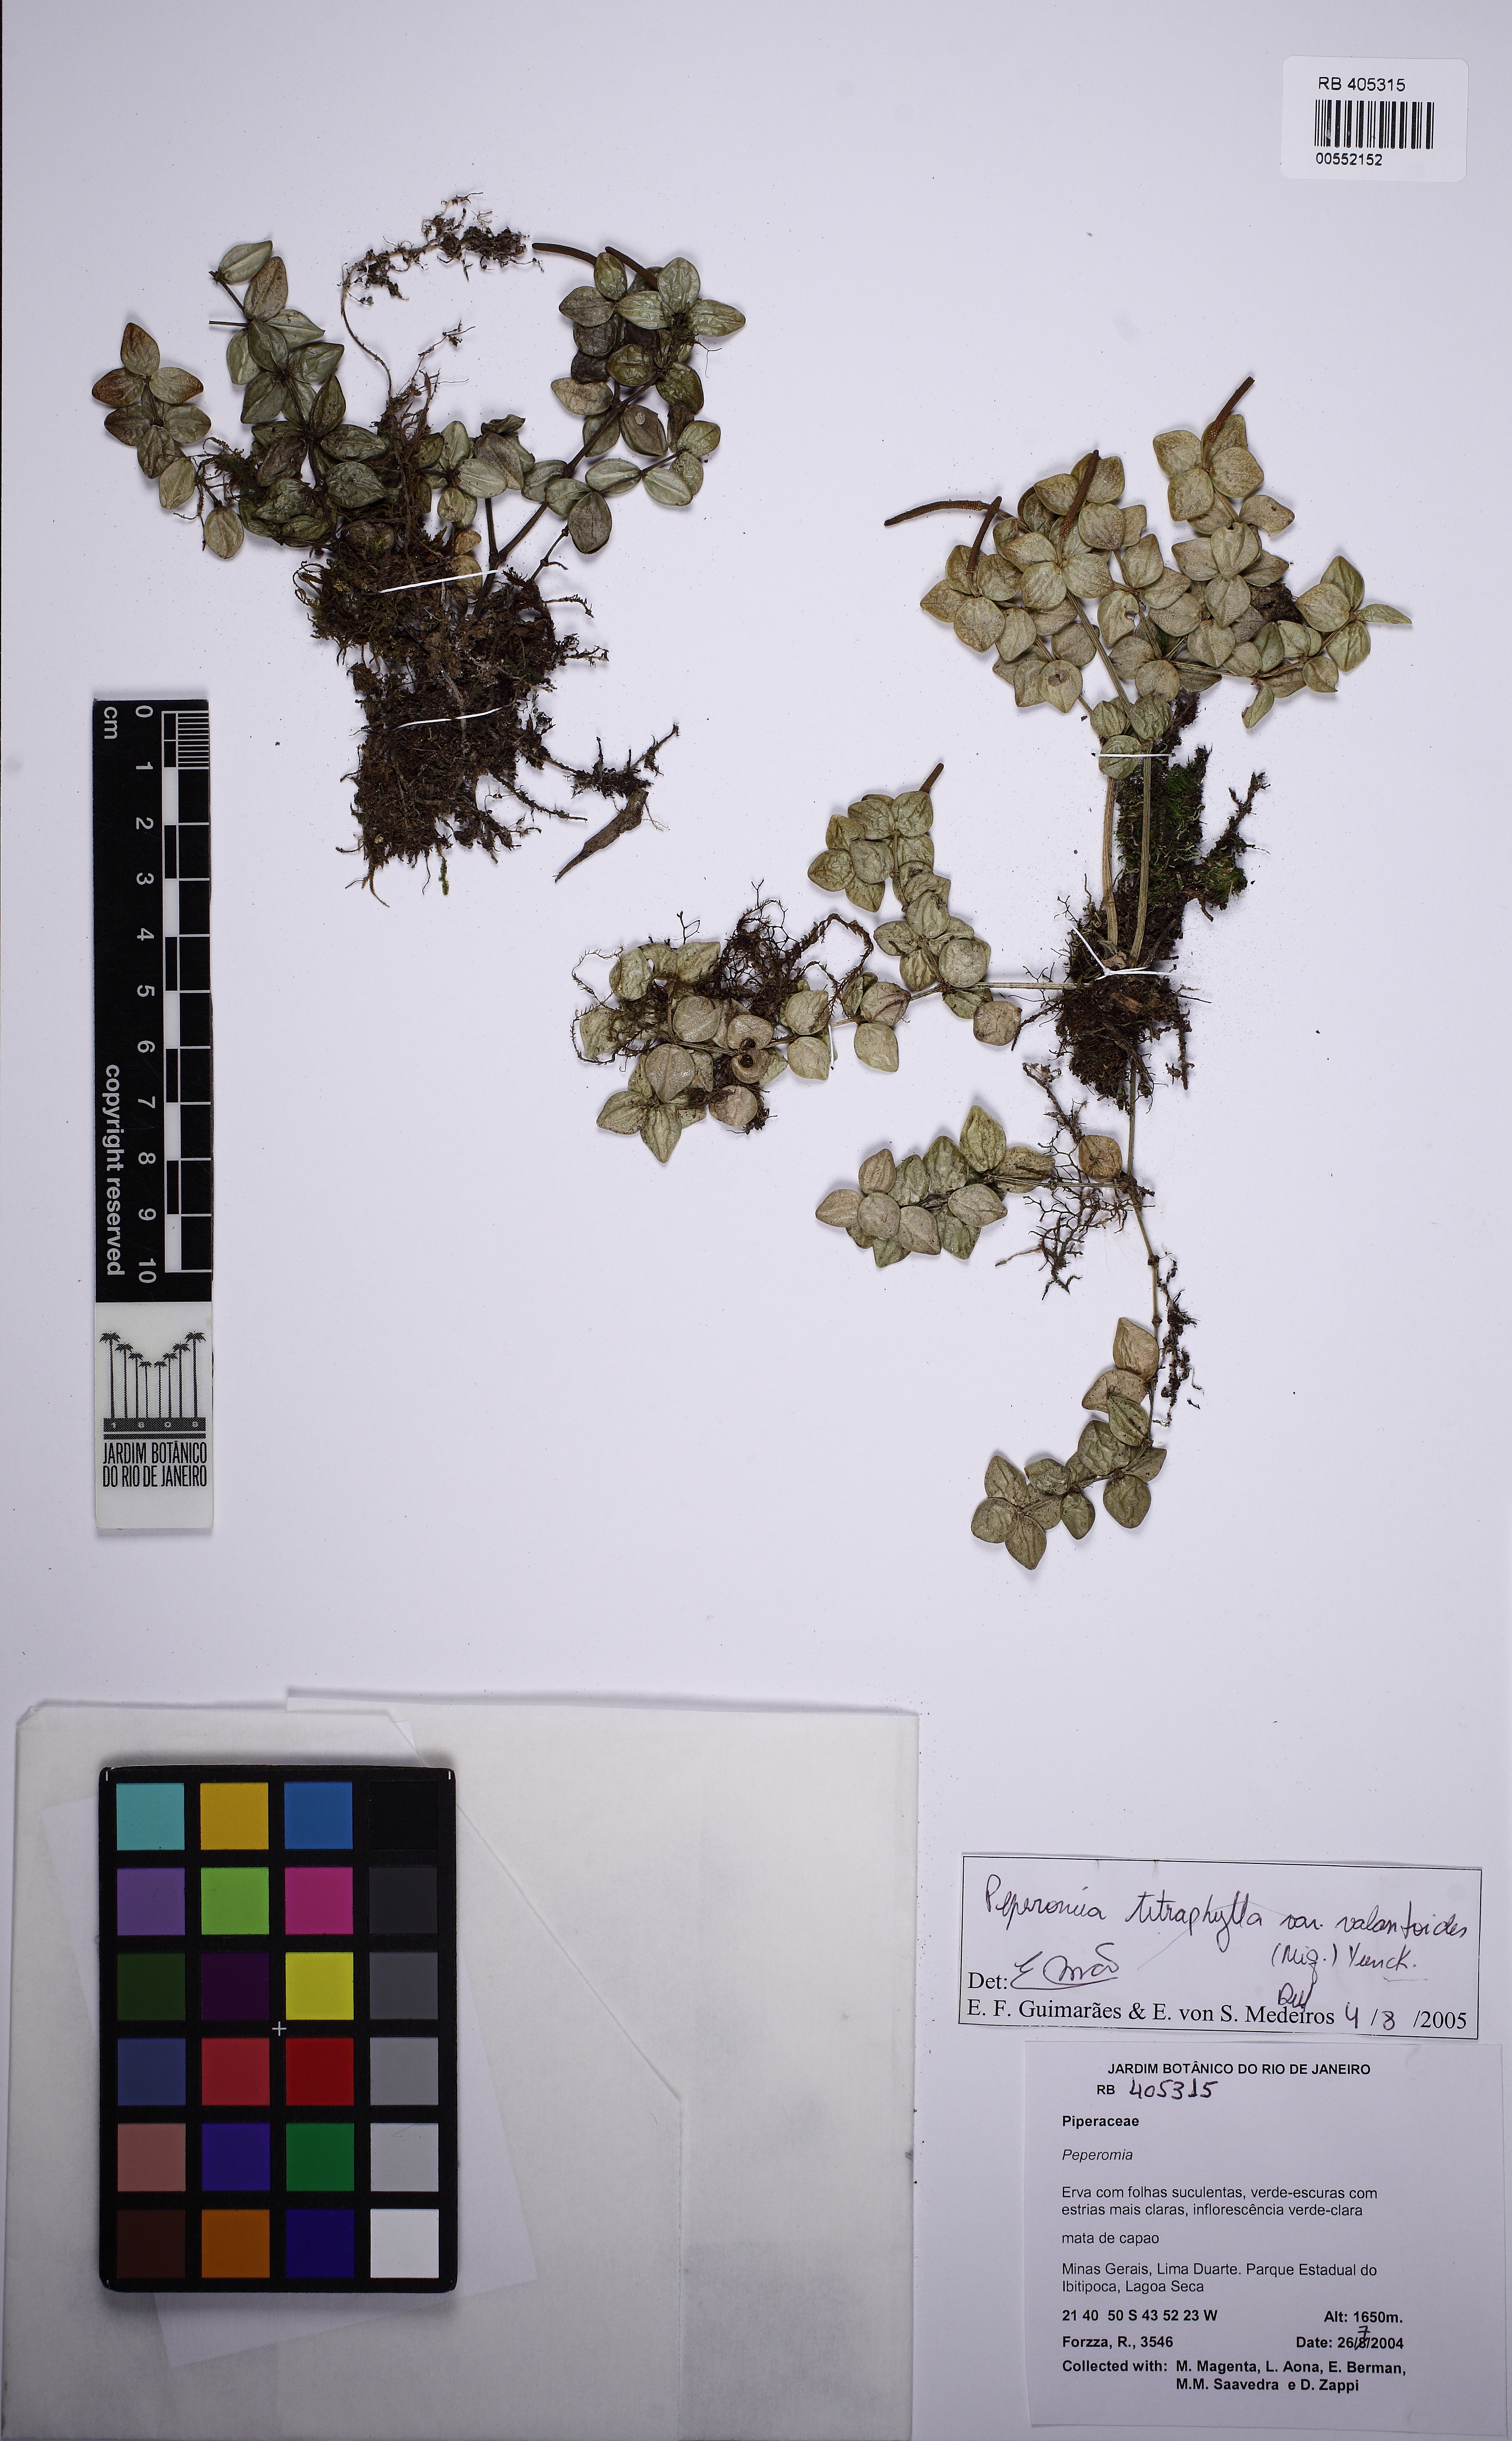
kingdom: Plantae
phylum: Tracheophyta
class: Magnoliopsida
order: Piperales
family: Piperaceae
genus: Peperomia
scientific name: Peperomia tetraphylla
